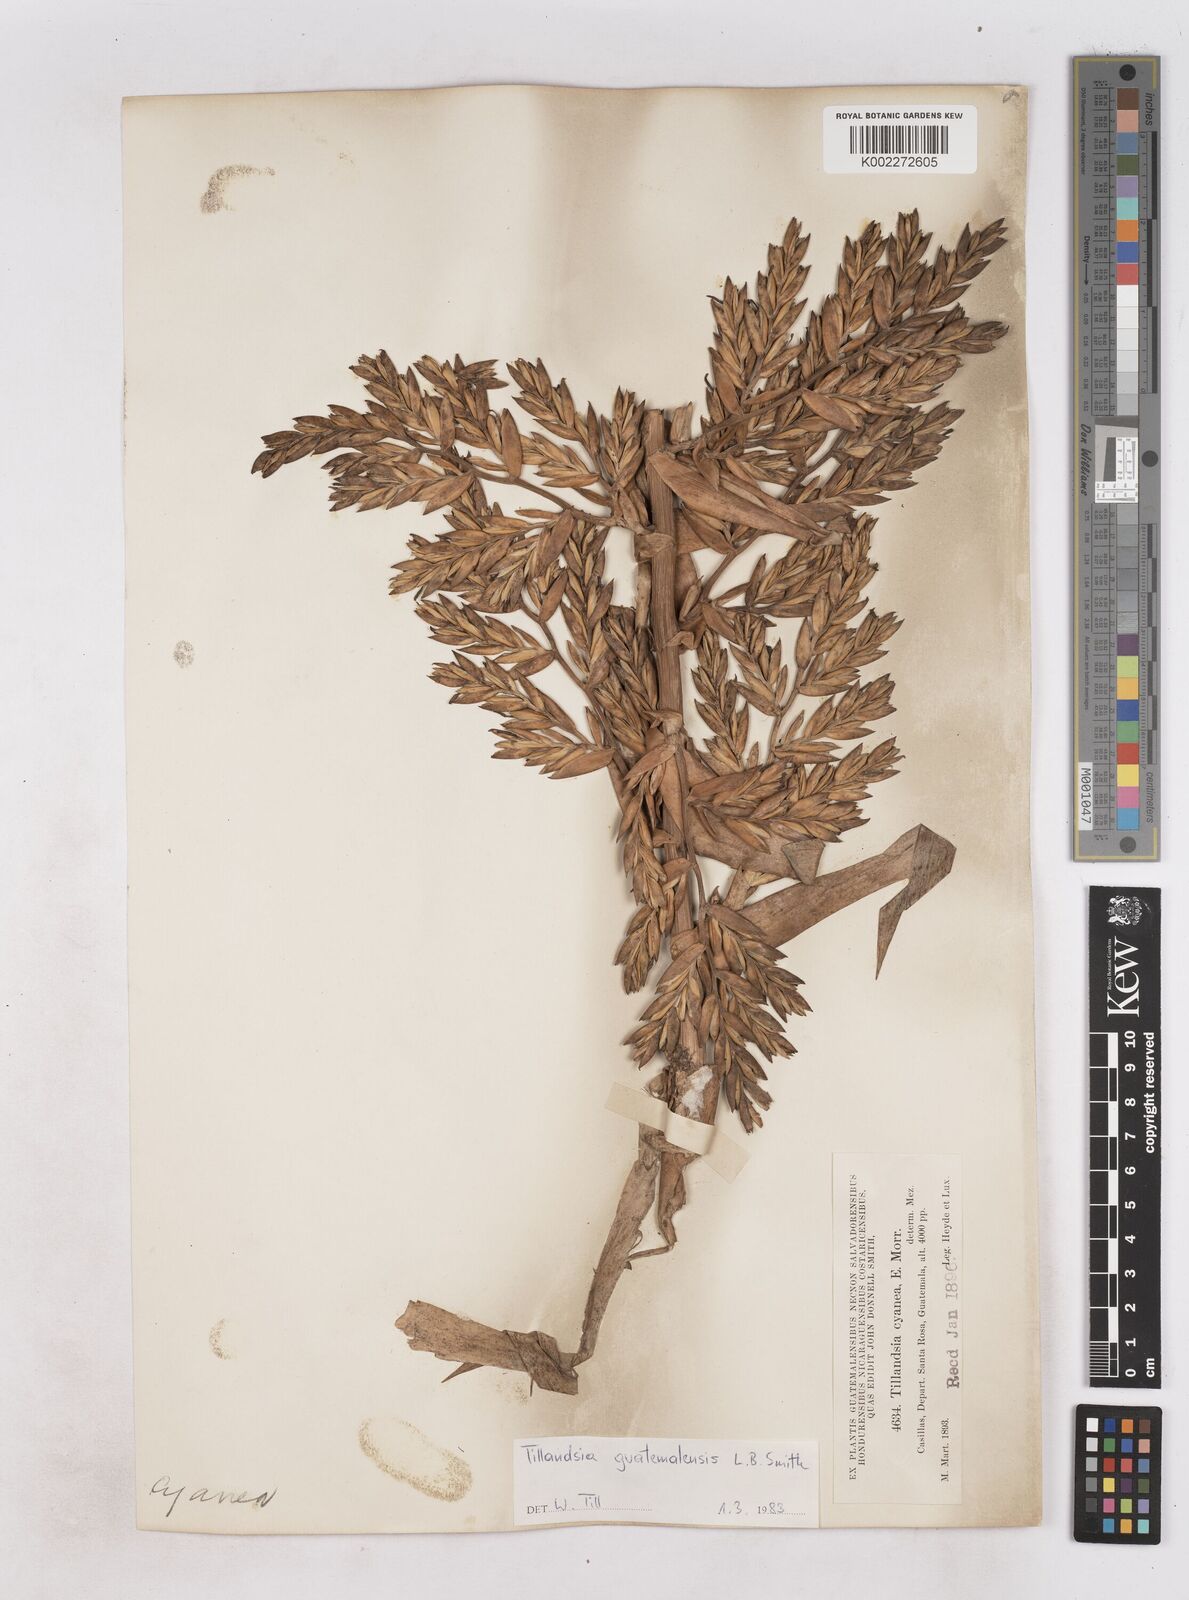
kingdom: Plantae
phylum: Tracheophyta
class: Liliopsida
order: Poales
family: Bromeliaceae
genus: Tillandsia
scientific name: Tillandsia guatemalensis
